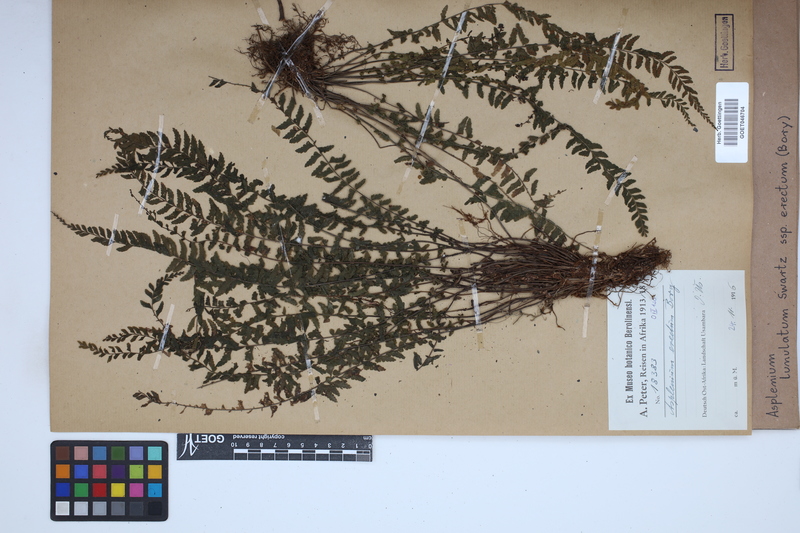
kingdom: Plantae
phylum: Tracheophyta
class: Polypodiopsida
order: Polypodiales
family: Aspleniaceae
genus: Asplenium
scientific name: Asplenium erectum
